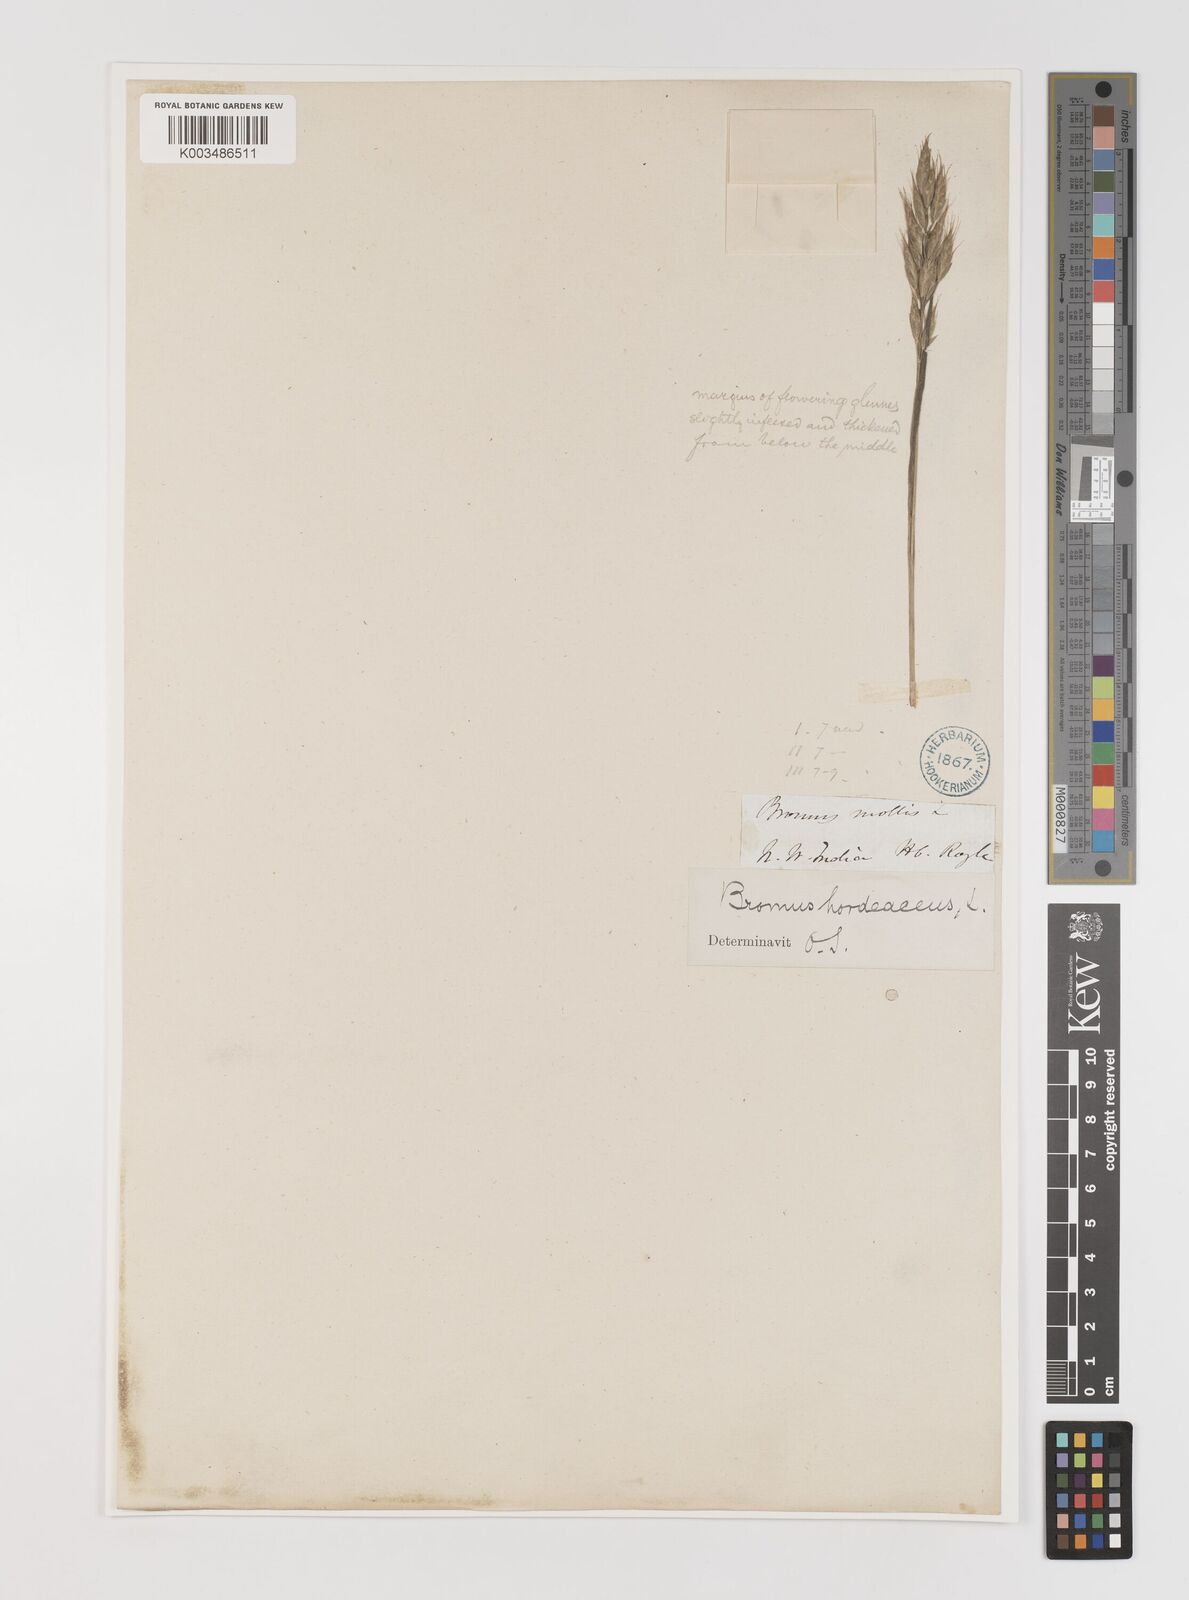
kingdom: Plantae
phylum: Tracheophyta
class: Liliopsida
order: Poales
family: Poaceae
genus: Bromus
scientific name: Bromus hordeaceus
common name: Soft brome
